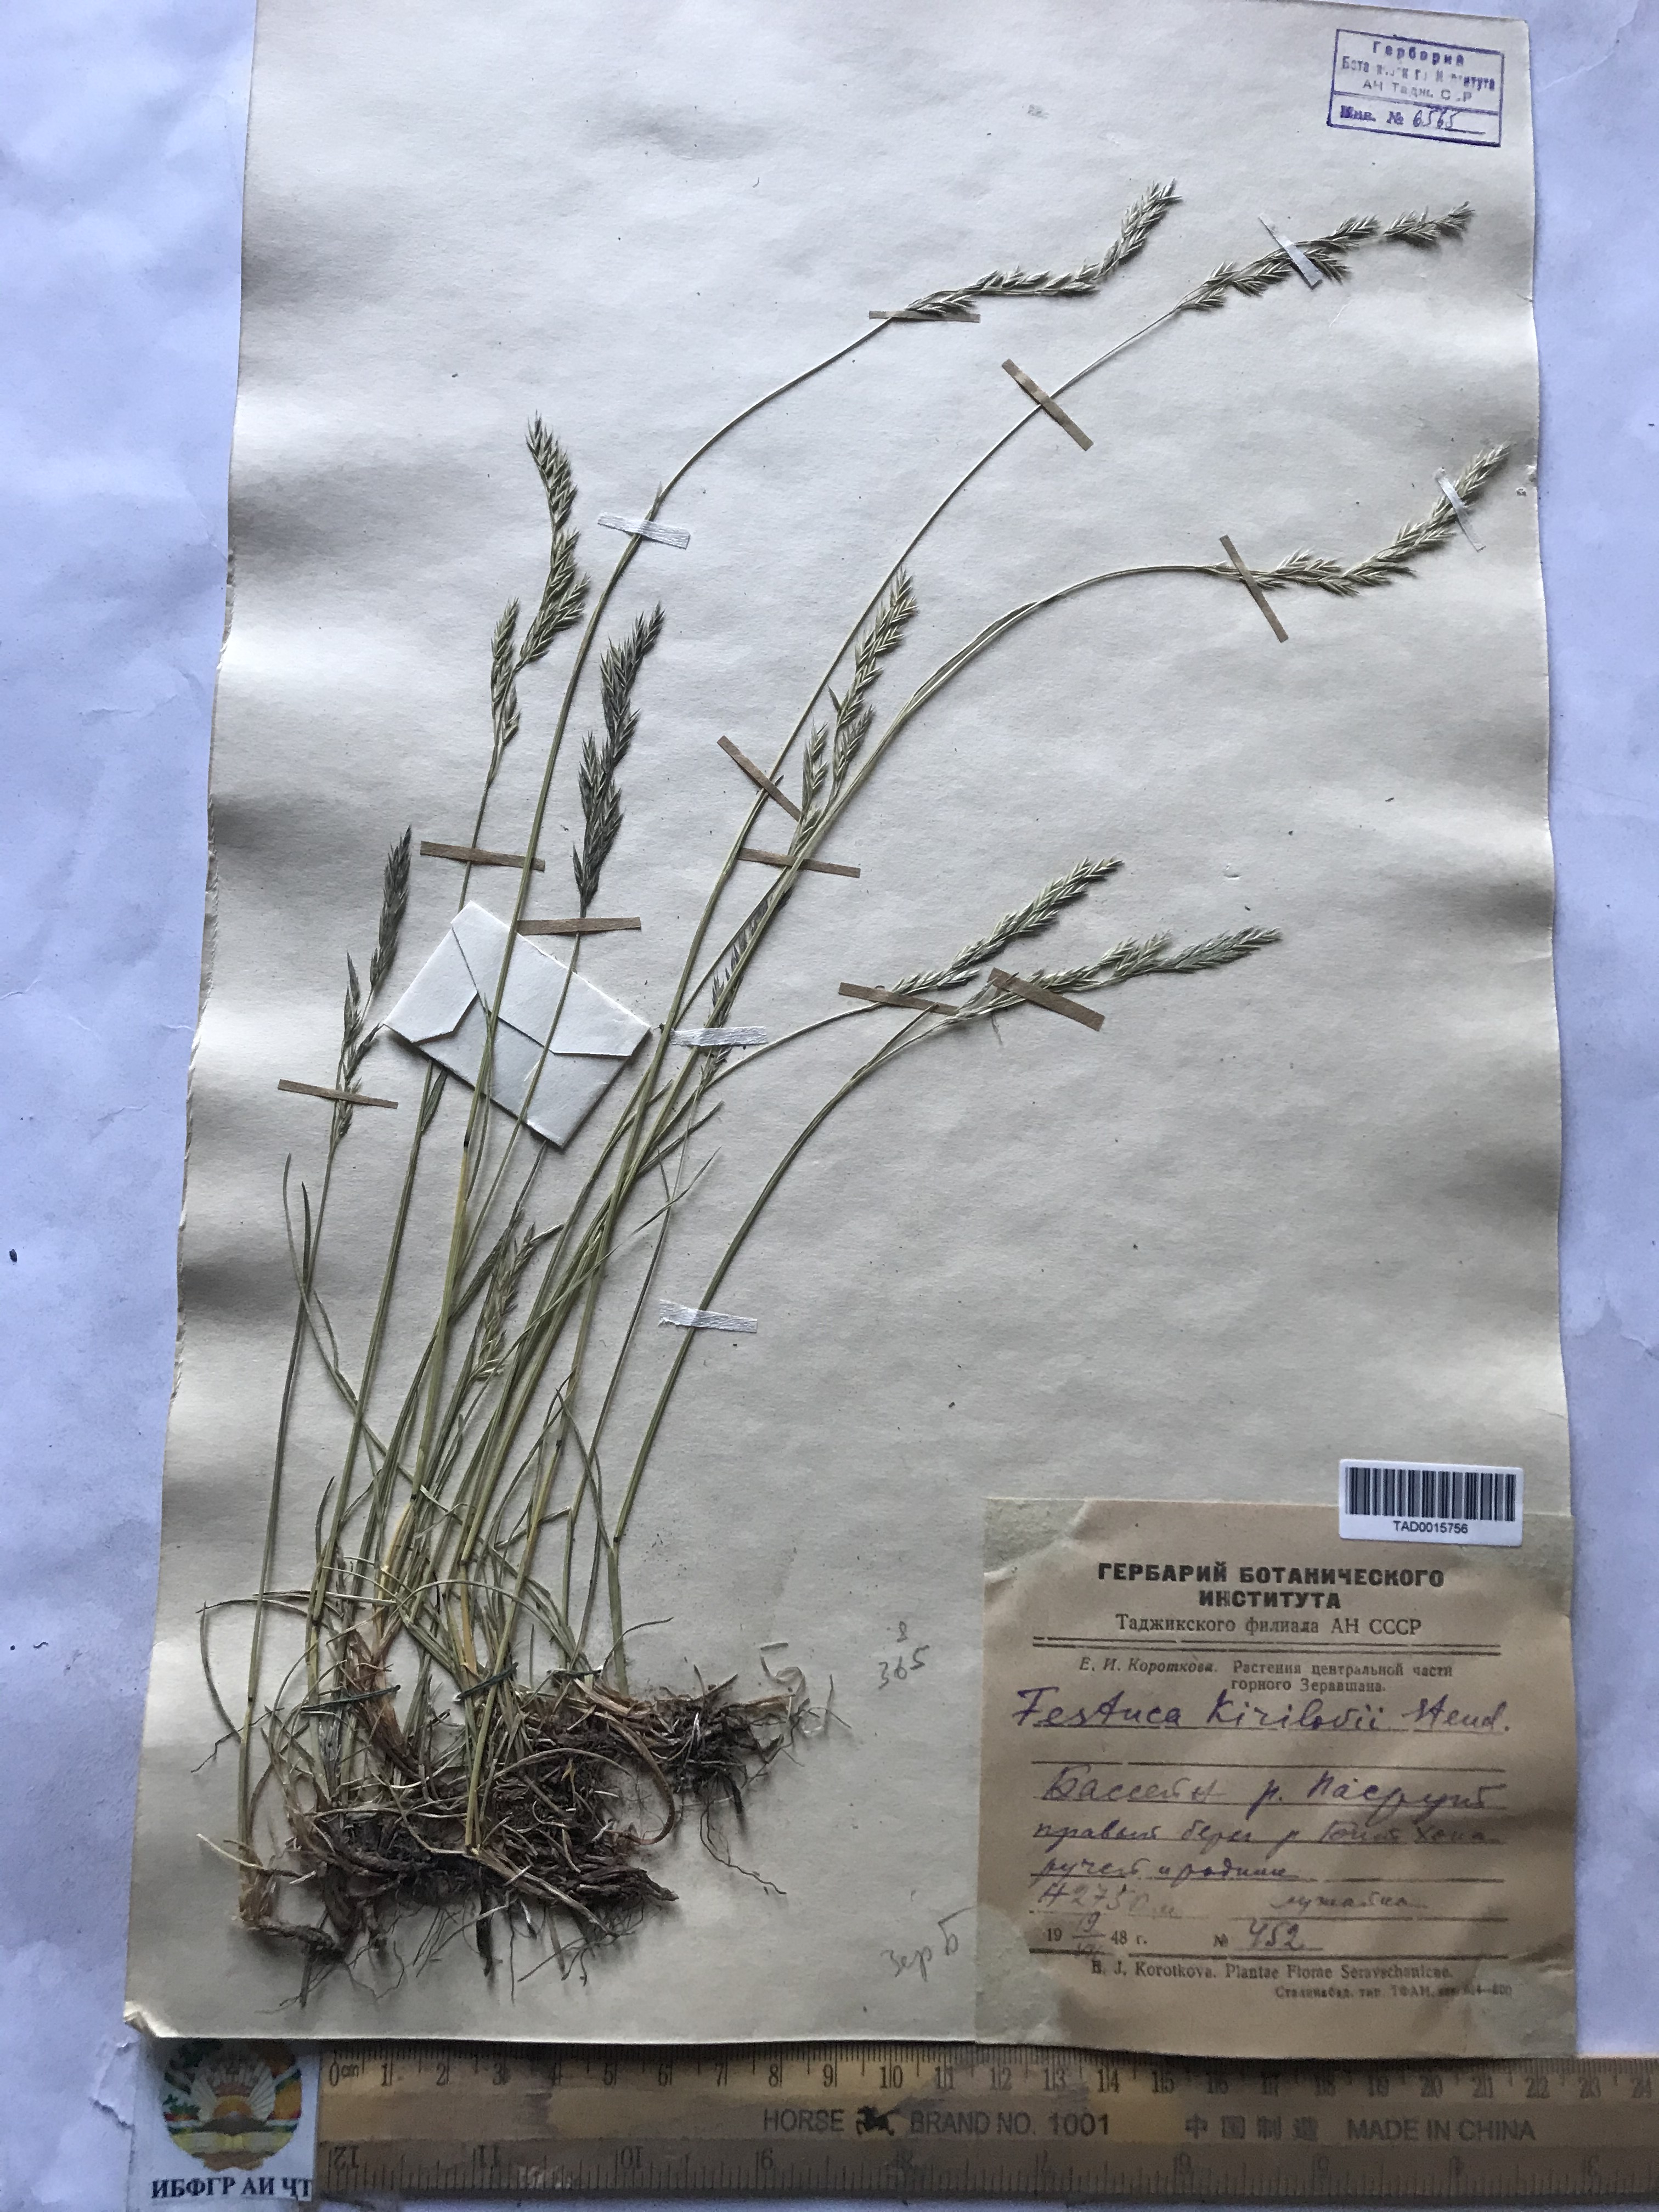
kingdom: Plantae
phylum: Tracheophyta
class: Liliopsida
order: Poales
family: Poaceae
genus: Festuca
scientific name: Festuca rubra
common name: Red fescue
